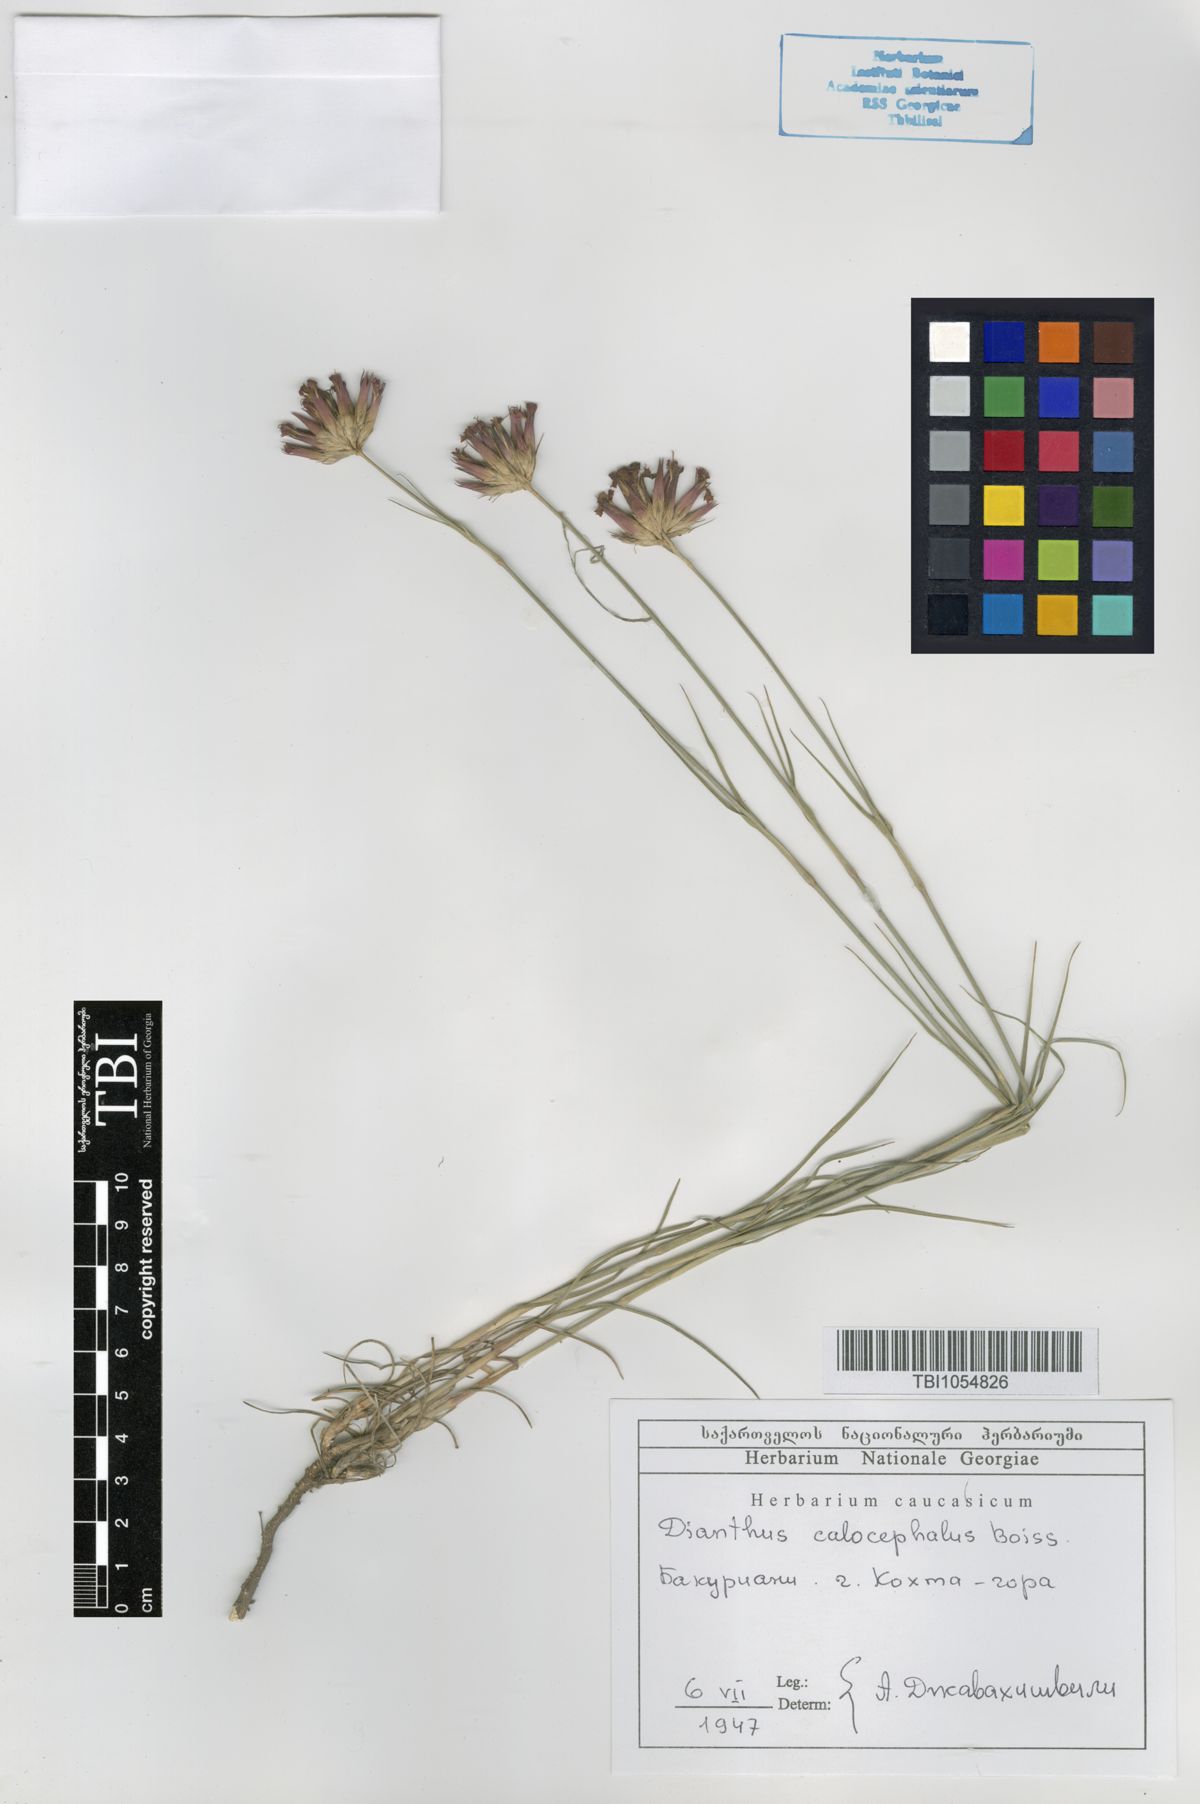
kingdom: Plantae
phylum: Tracheophyta
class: Magnoliopsida
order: Caryophyllales
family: Caryophyllaceae
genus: Dianthus
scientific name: Dianthus cruentus
